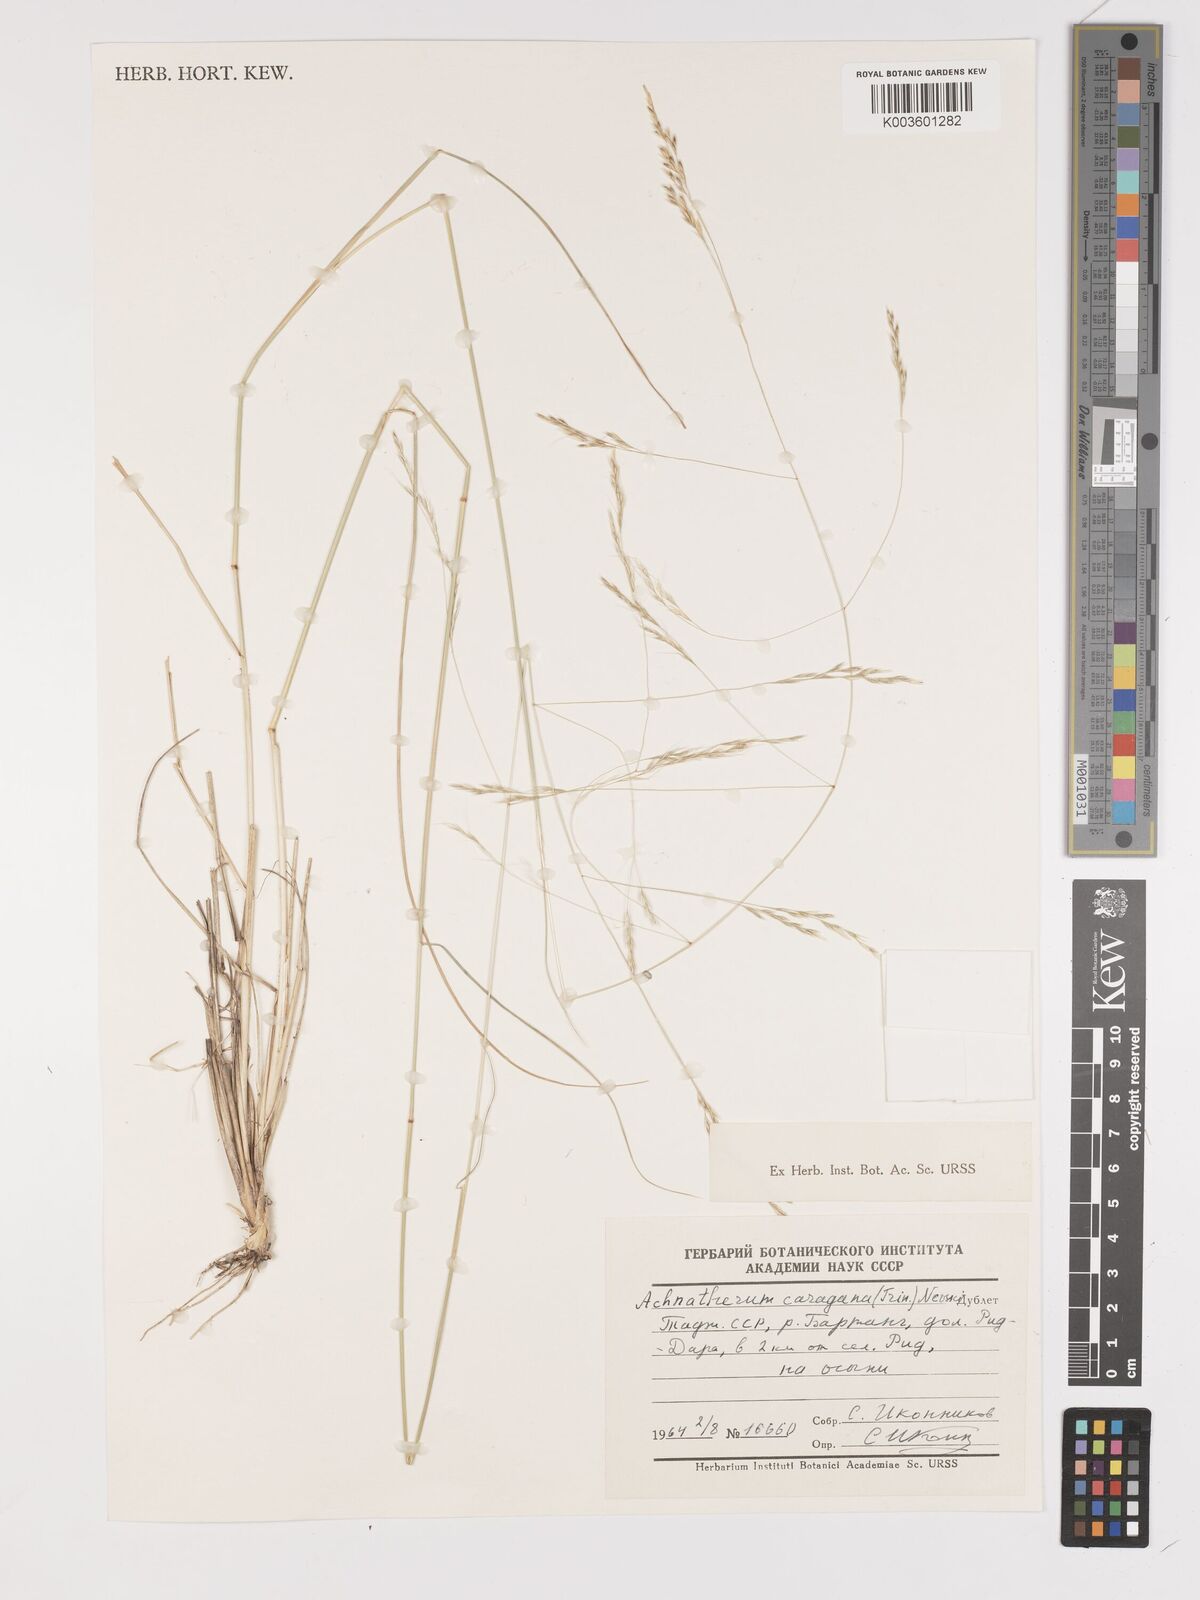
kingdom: Plantae
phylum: Tracheophyta
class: Liliopsida
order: Poales
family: Poaceae
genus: Stipa
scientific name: Stipa conferta
